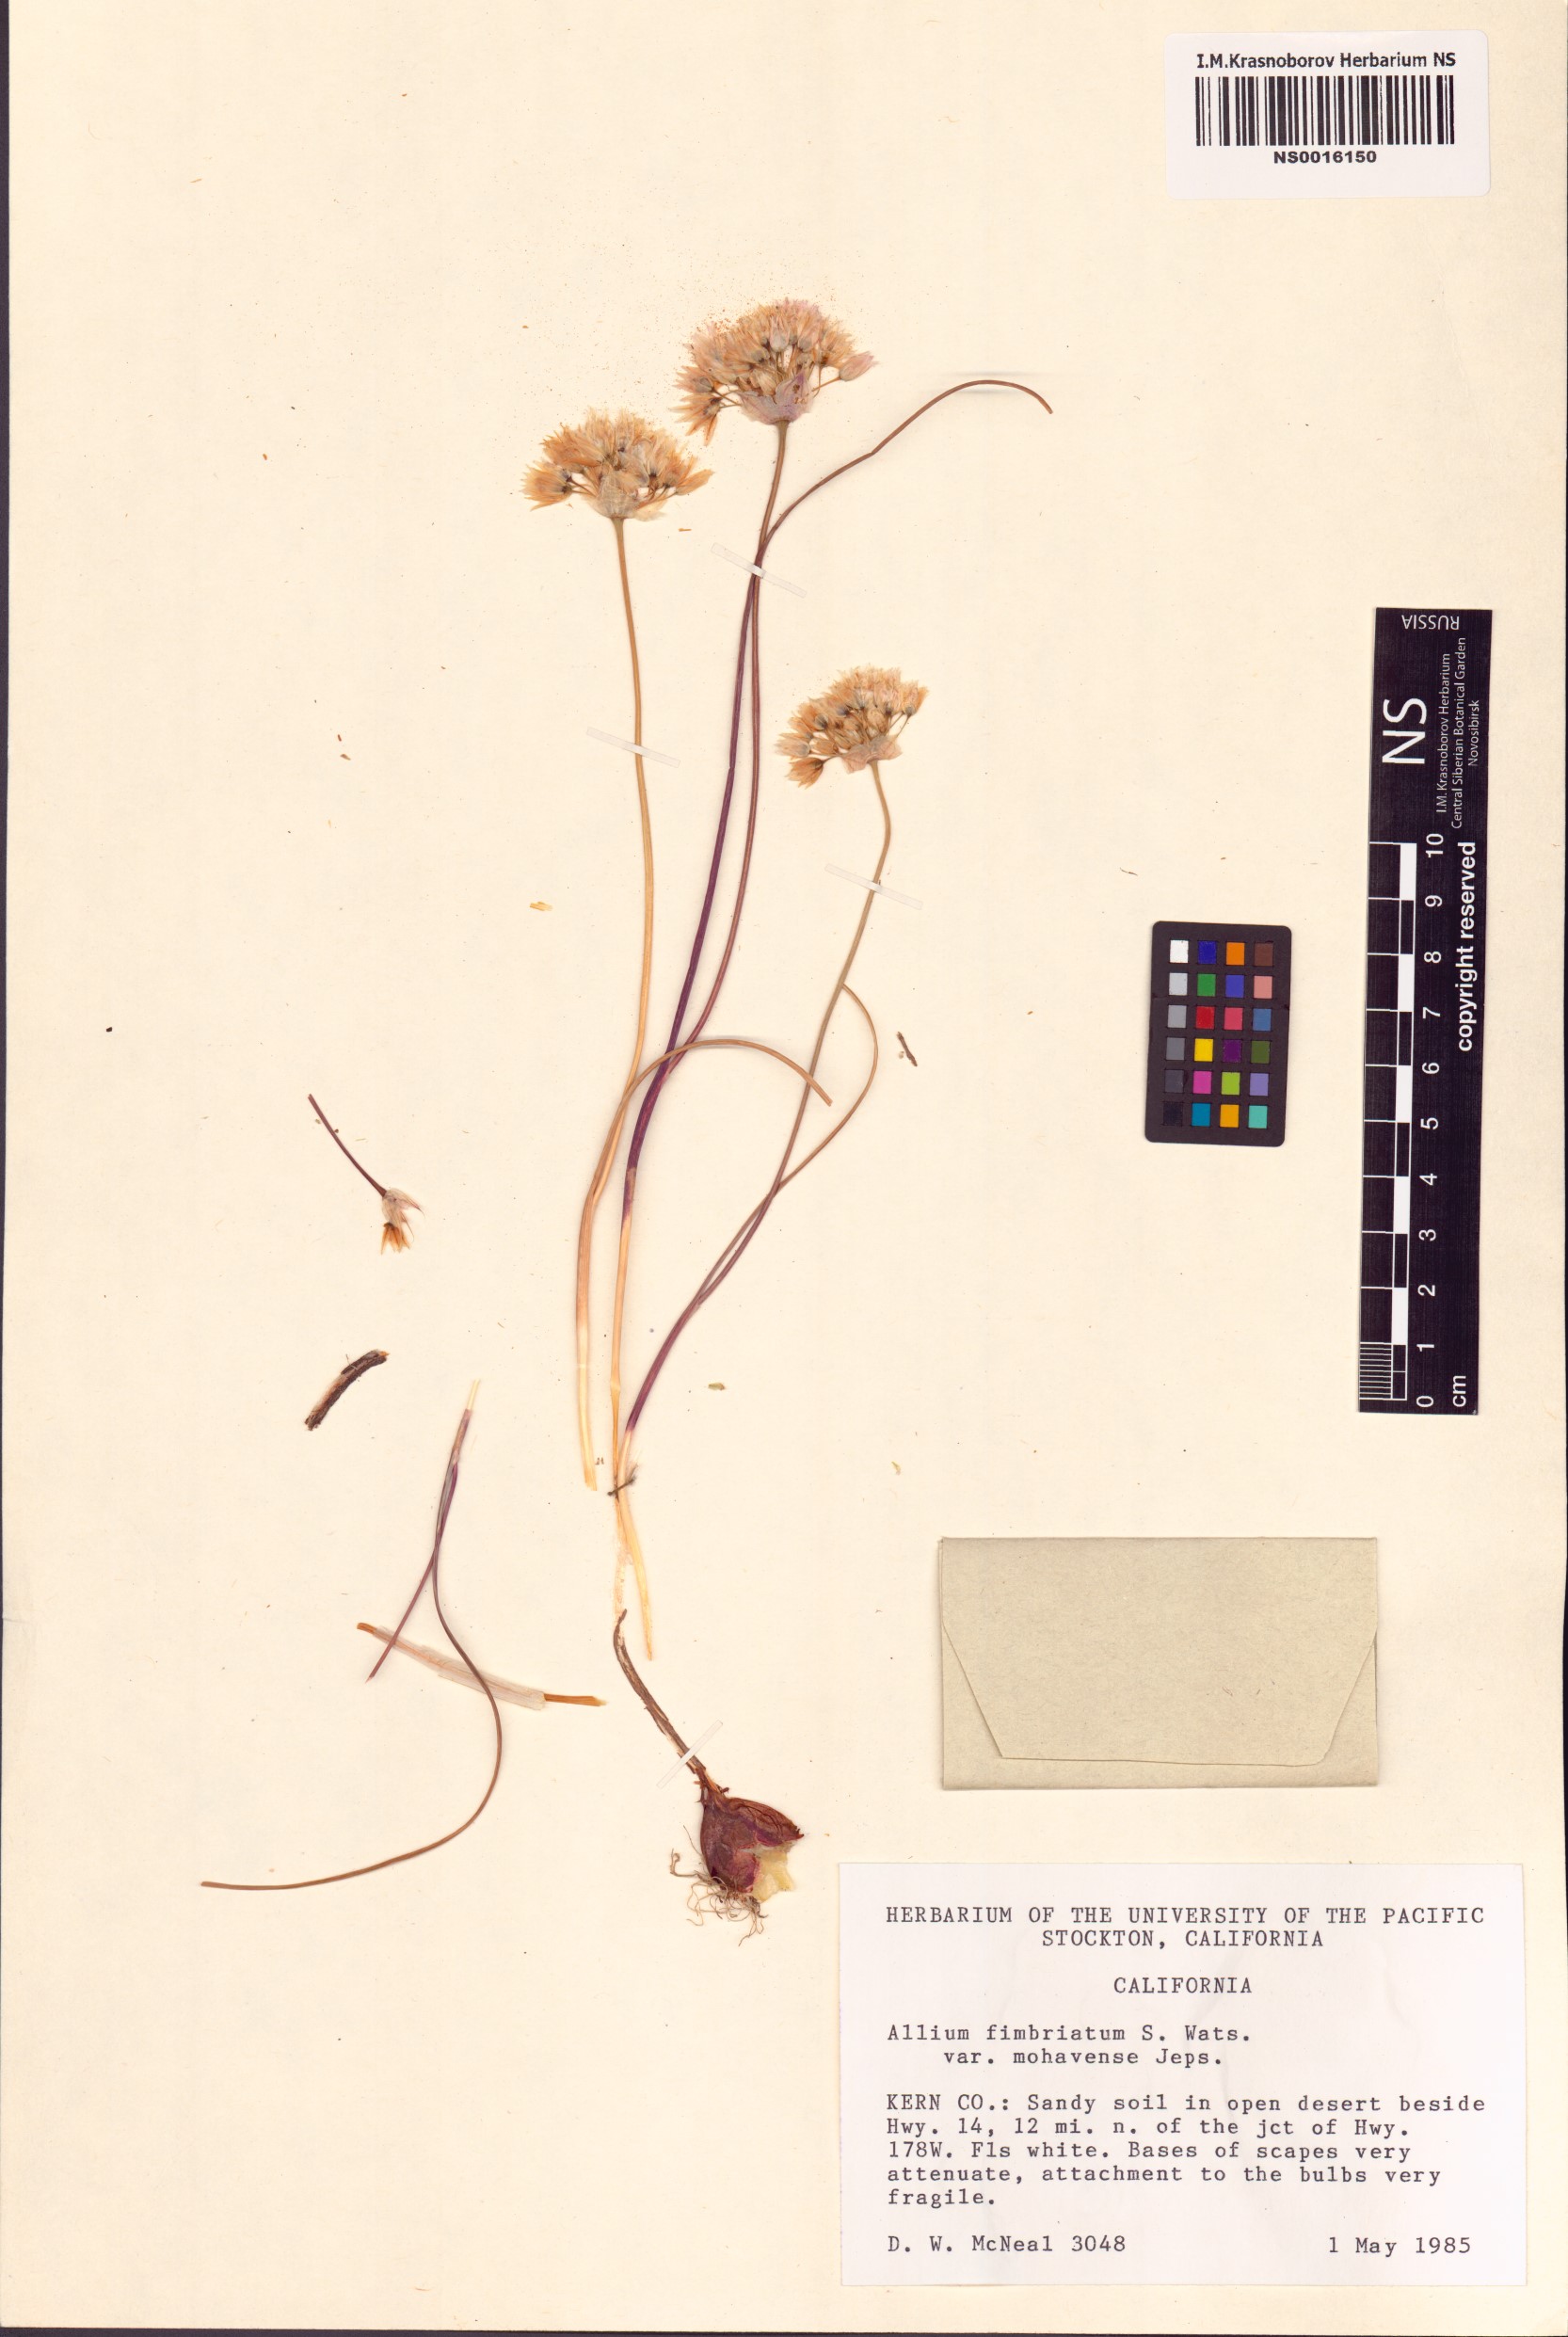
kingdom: Plantae
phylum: Tracheophyta
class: Liliopsida
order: Asparagales
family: Amaryllidaceae
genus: Allium
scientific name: Allium fimbriatum
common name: Fringed onion
